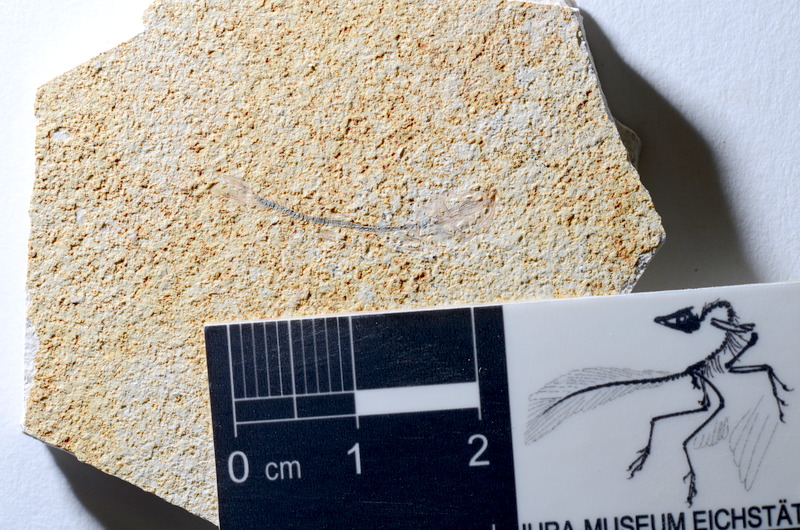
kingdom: Animalia
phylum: Chordata
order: Salmoniformes
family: Orthogonikleithridae
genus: Orthogonikleithrus
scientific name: Orthogonikleithrus hoelli
